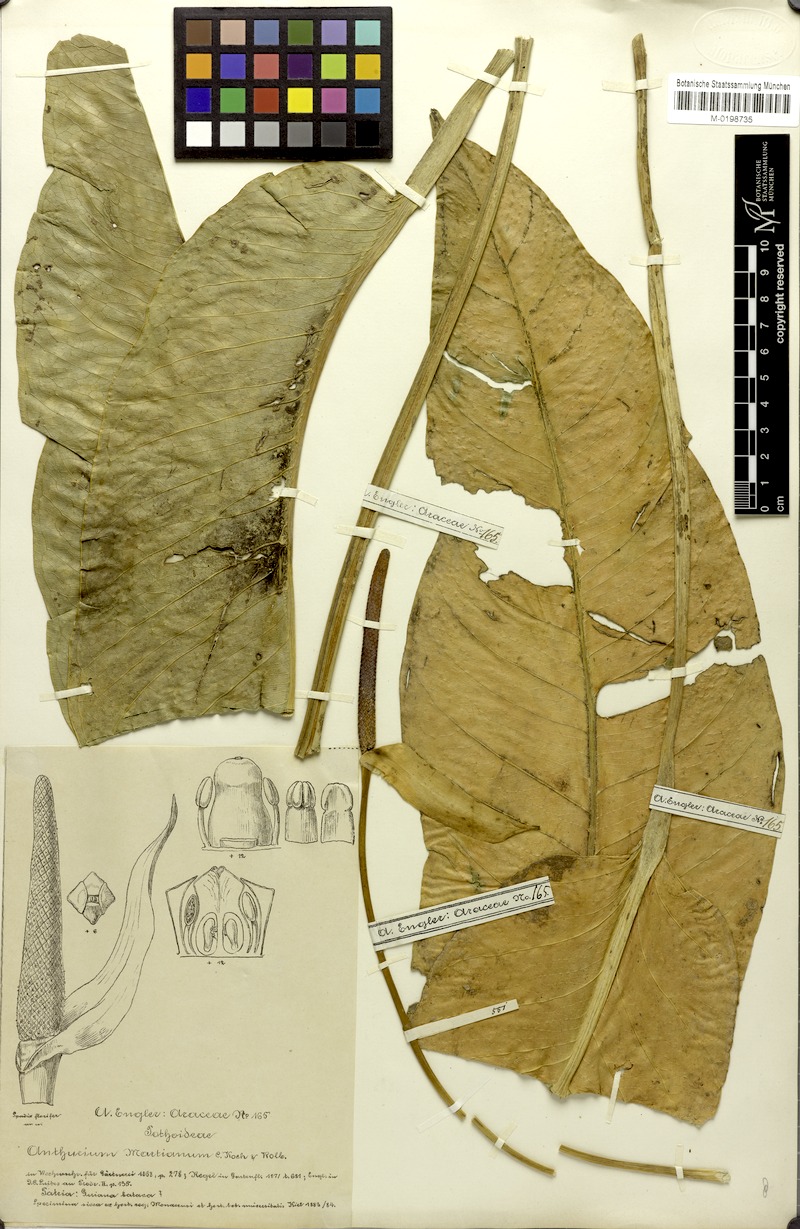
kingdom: Plantae
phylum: Tracheophyta
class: Liliopsida
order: Alismatales
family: Araceae
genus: Anthurium
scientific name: Anthurium martianum
